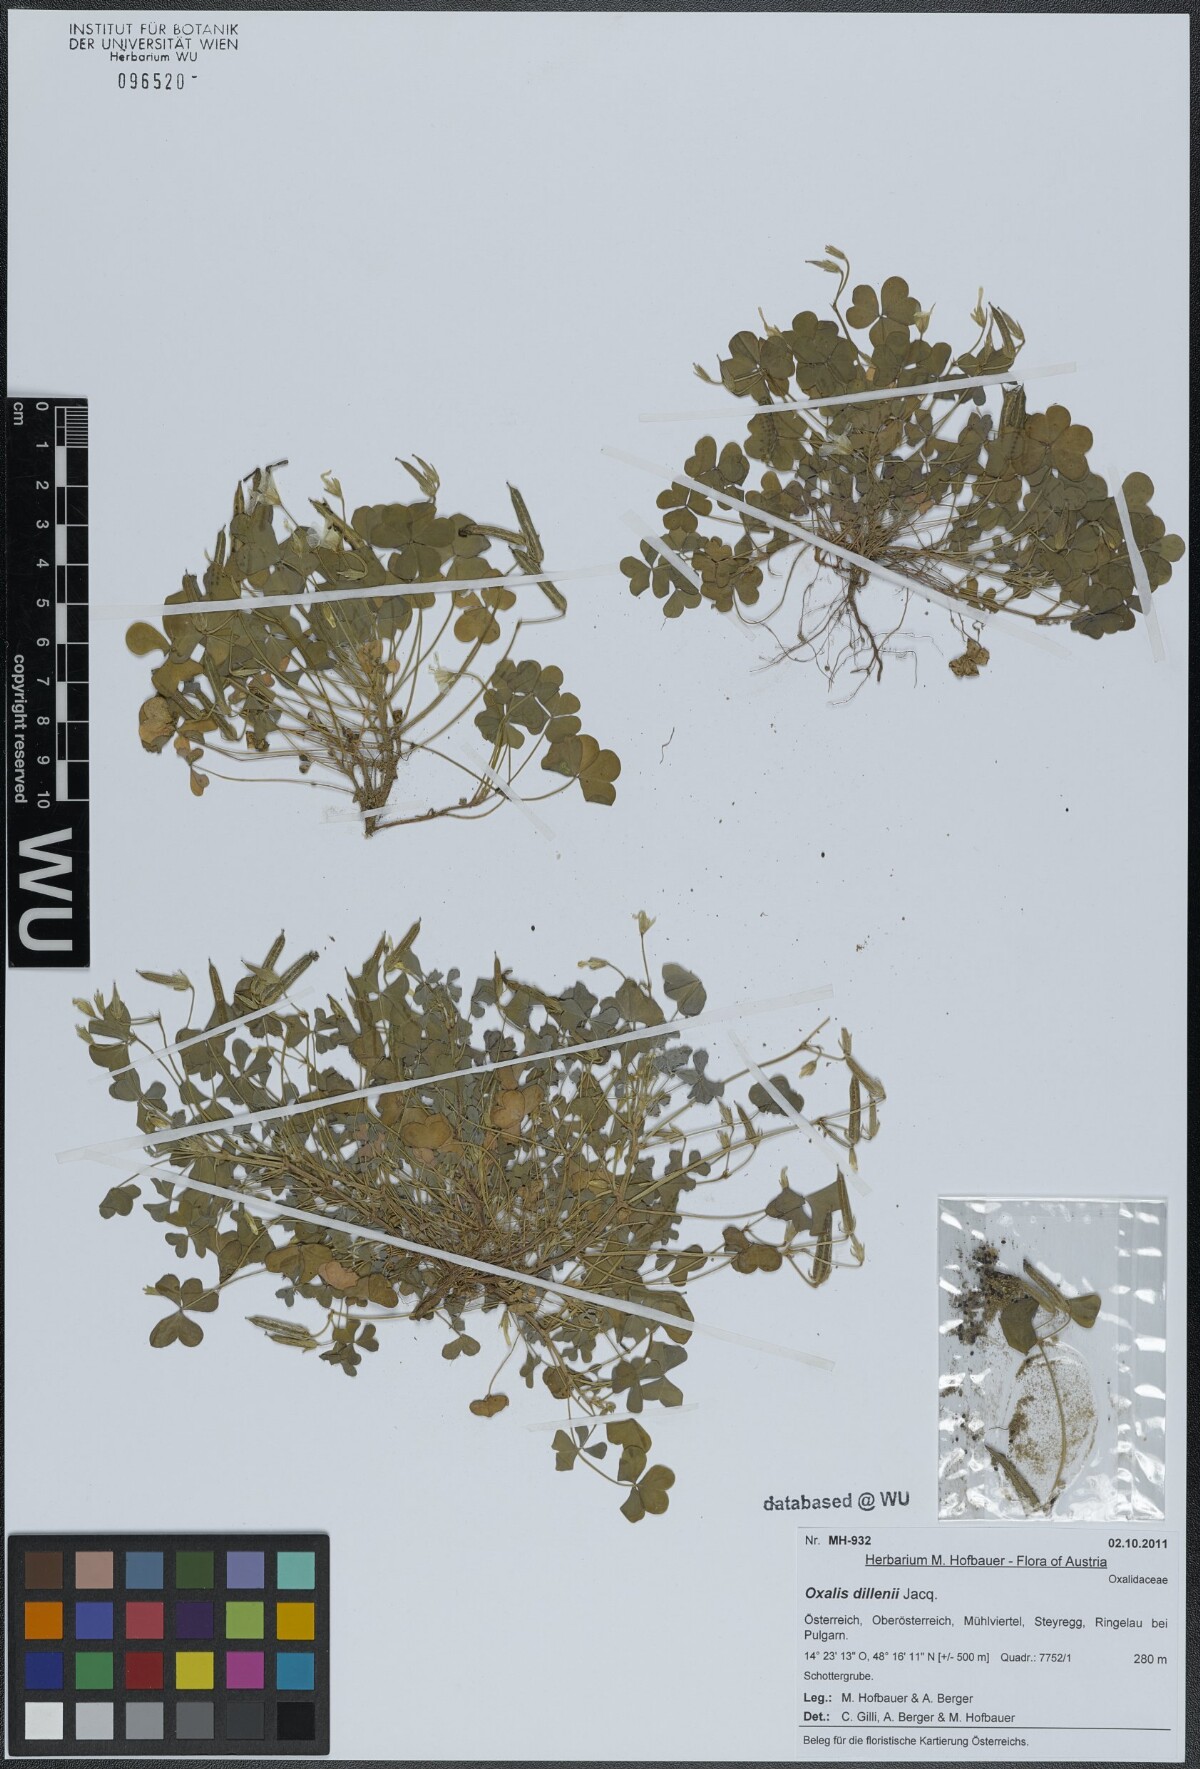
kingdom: Plantae
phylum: Tracheophyta
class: Magnoliopsida
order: Oxalidales
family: Oxalidaceae
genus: Oxalis
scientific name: Oxalis dillenii
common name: Sussex yellow-sorrel
